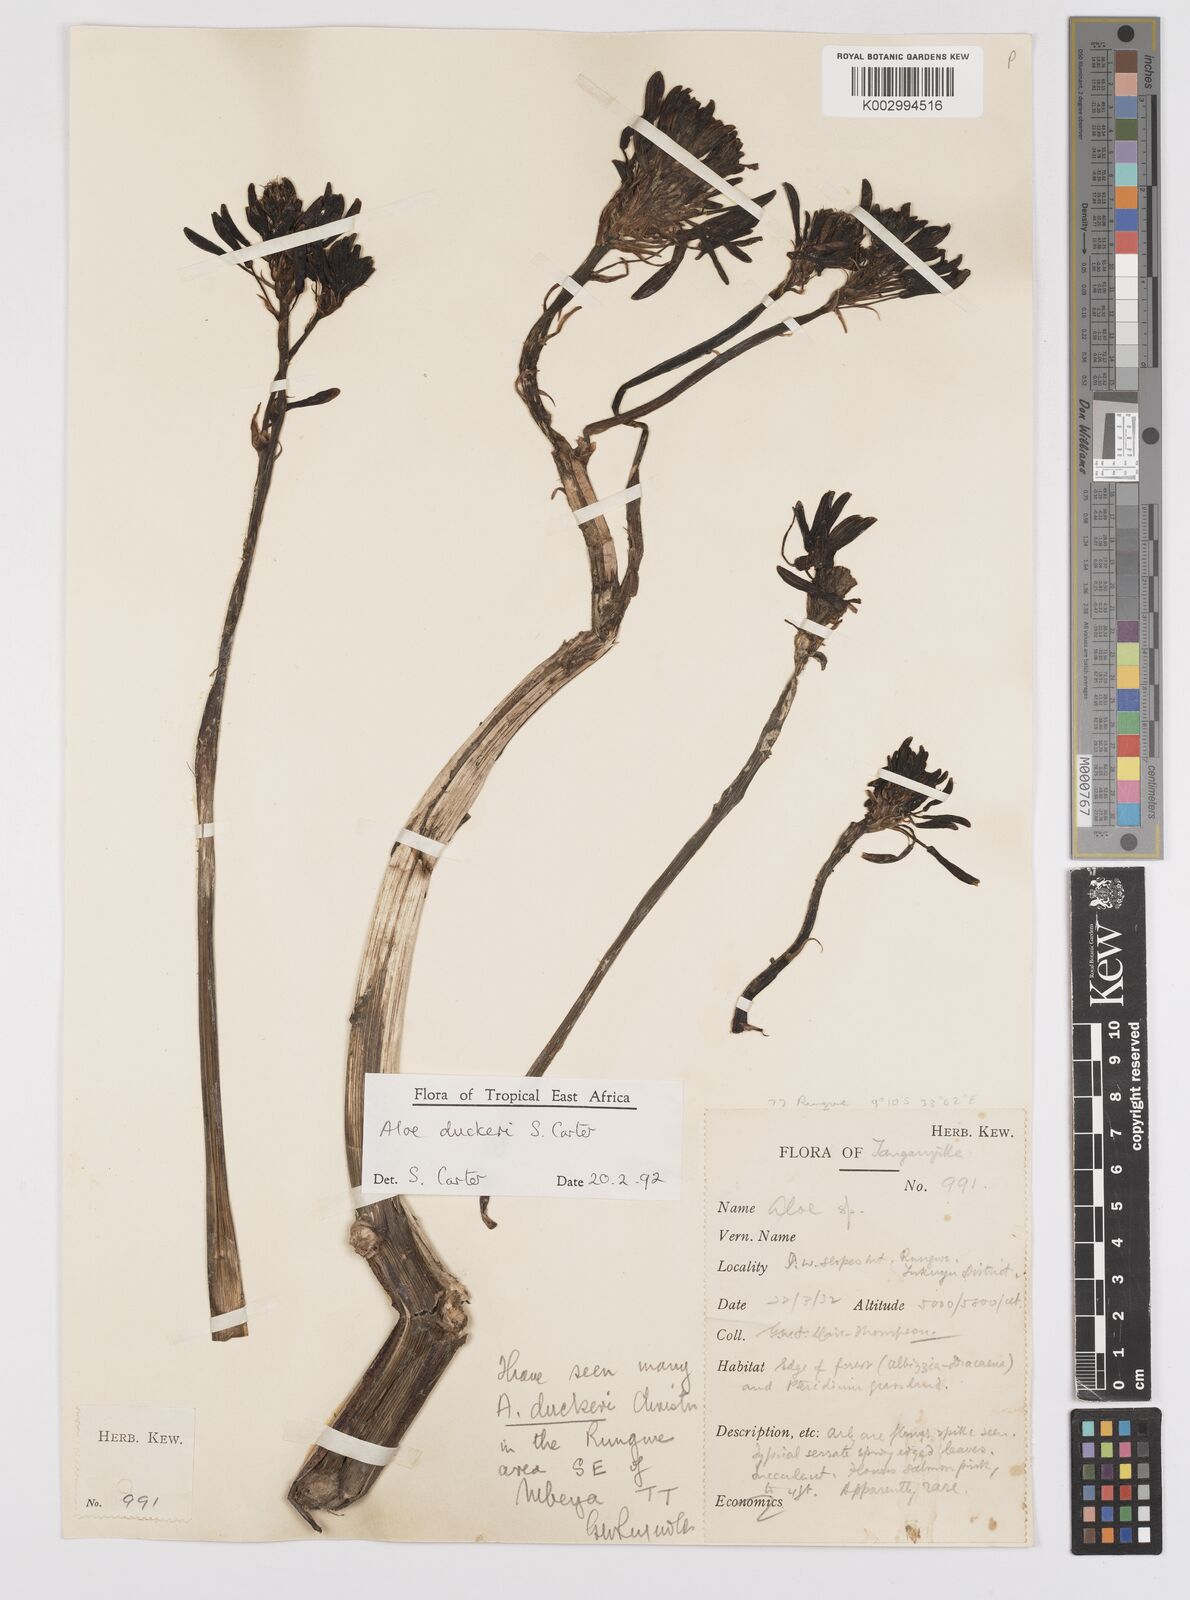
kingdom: Plantae
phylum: Tracheophyta
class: Liliopsida
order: Asparagales
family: Asphodelaceae
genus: Aloe
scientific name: Aloe duckeri
